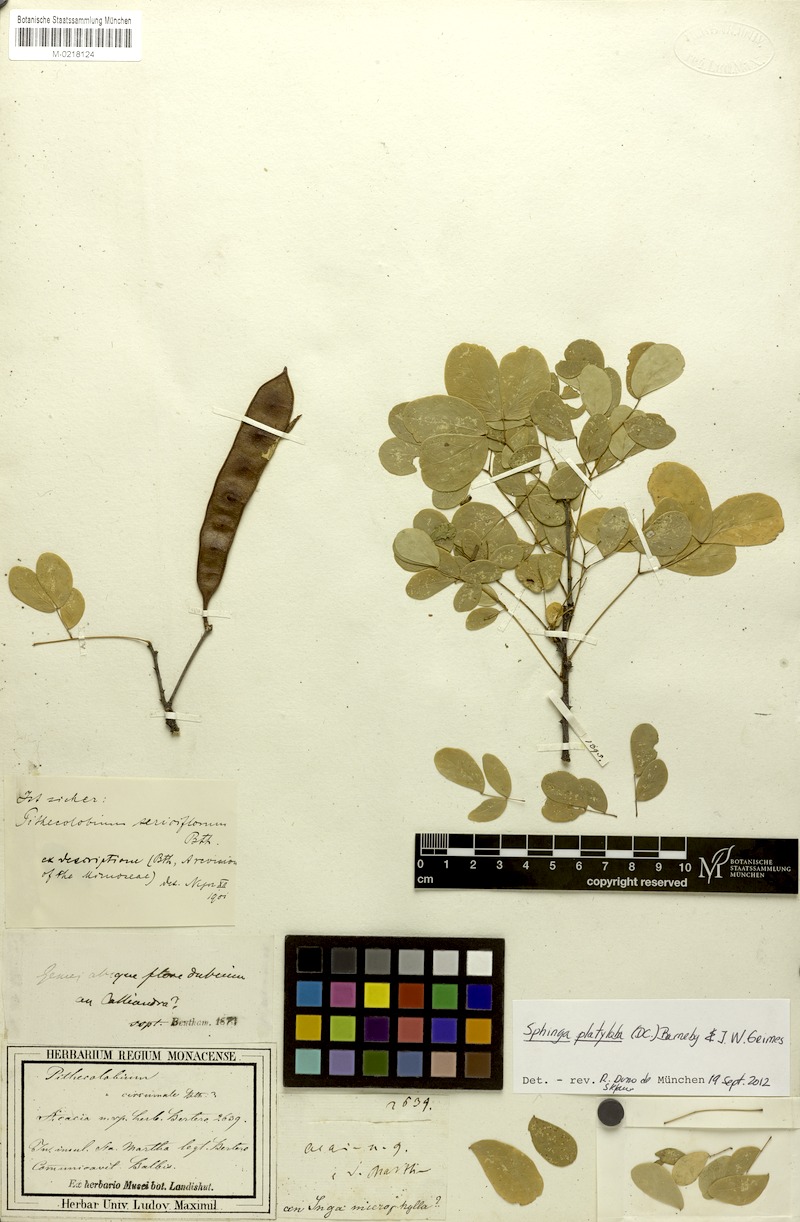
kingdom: Plantae
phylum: Tracheophyta
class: Magnoliopsida
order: Fabales
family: Fabaceae
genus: Havardia
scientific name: Havardia platyloba
